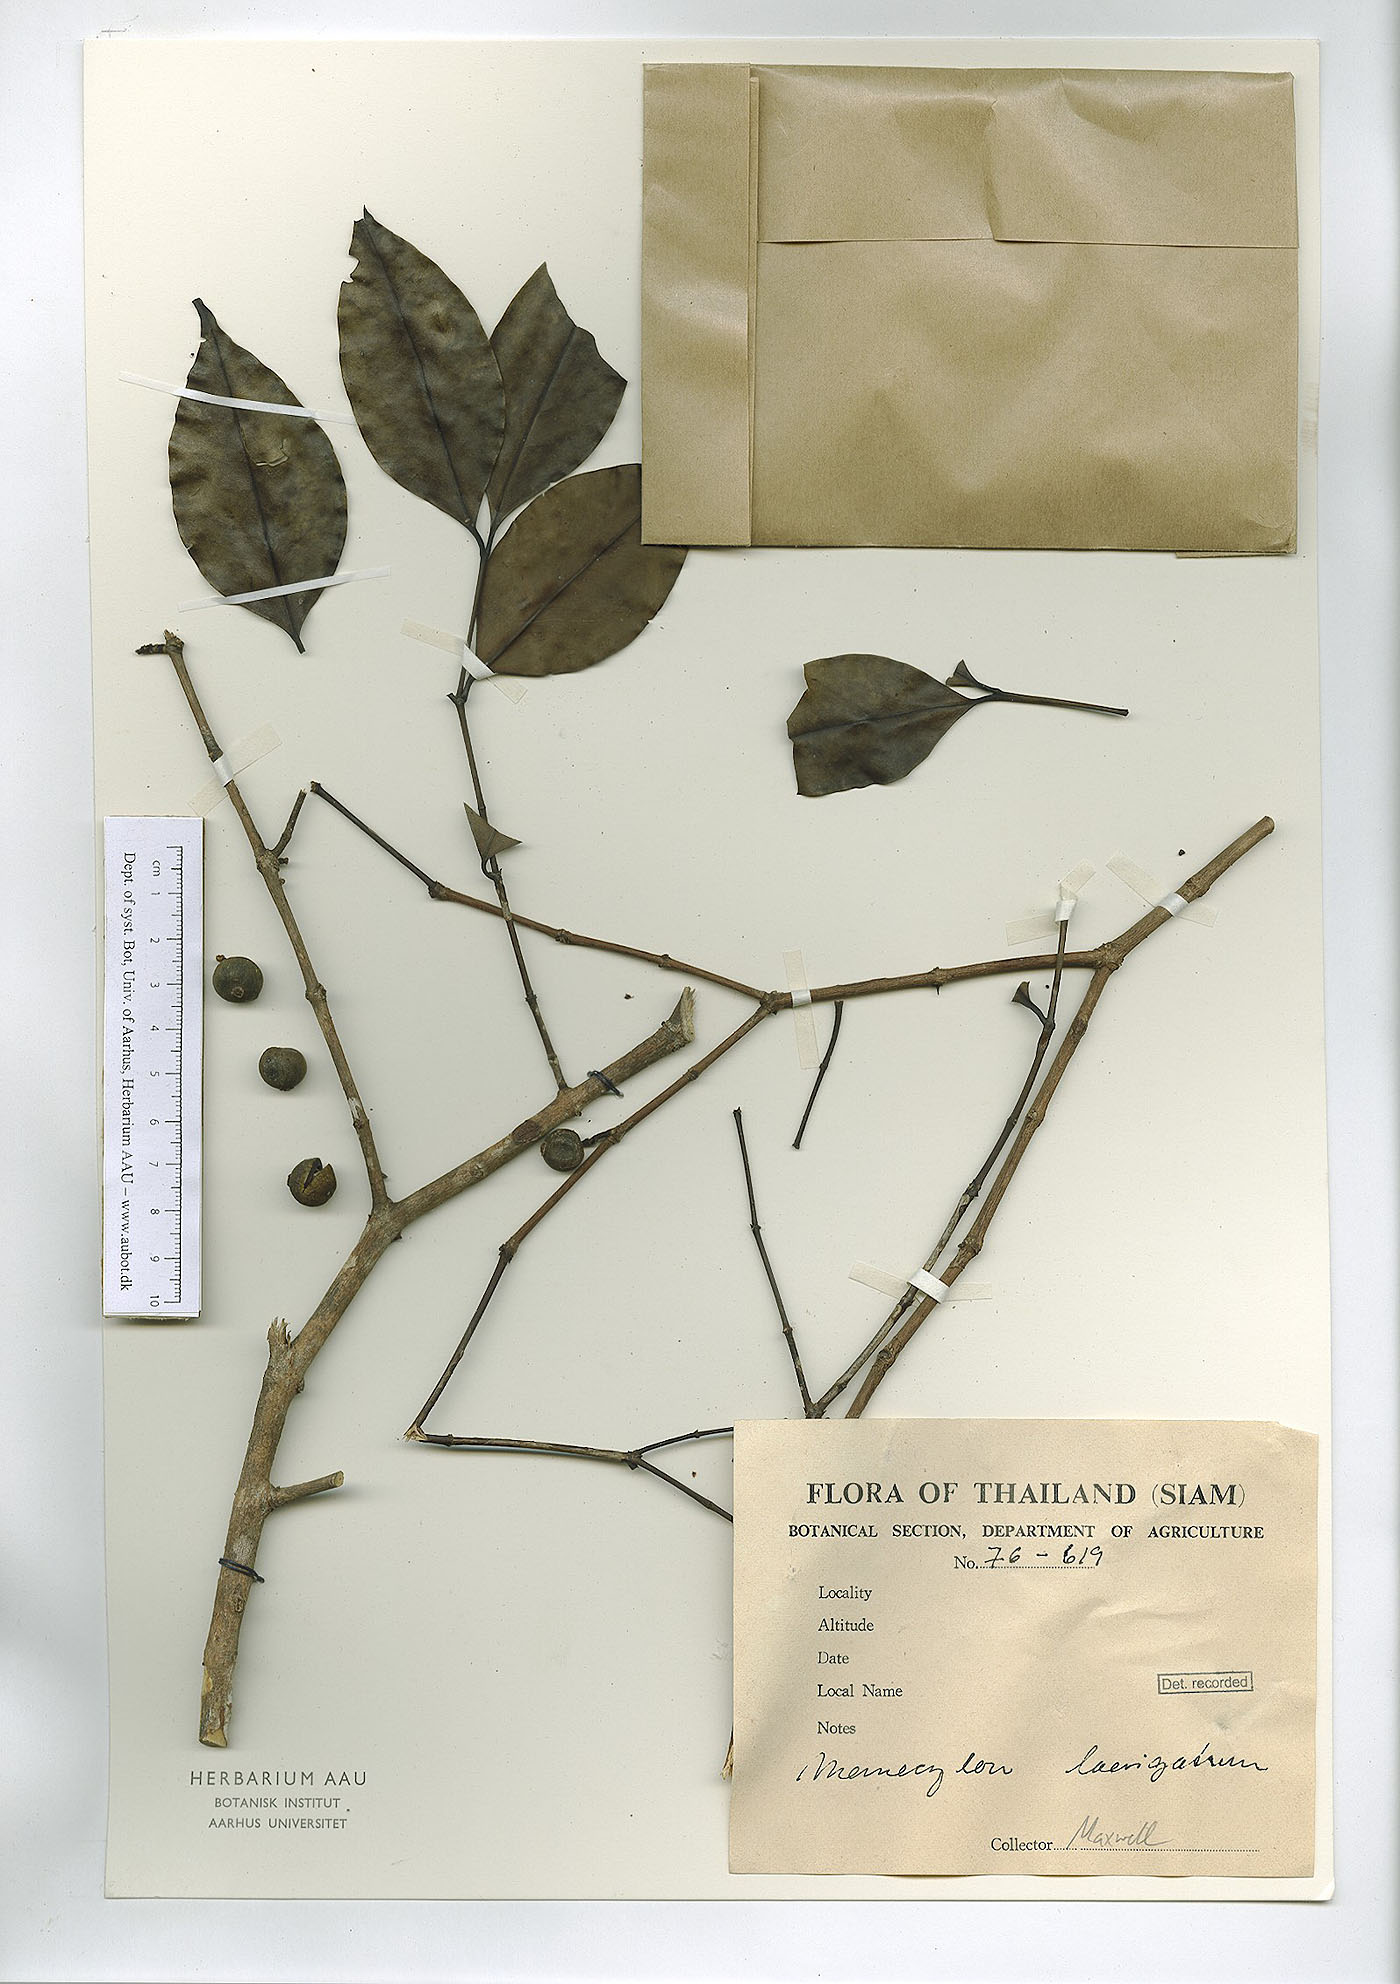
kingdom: Plantae
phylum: Tracheophyta
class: Magnoliopsida
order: Myrtales
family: Melastomataceae
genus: Memecylon
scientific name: Memecylon lilacinum
